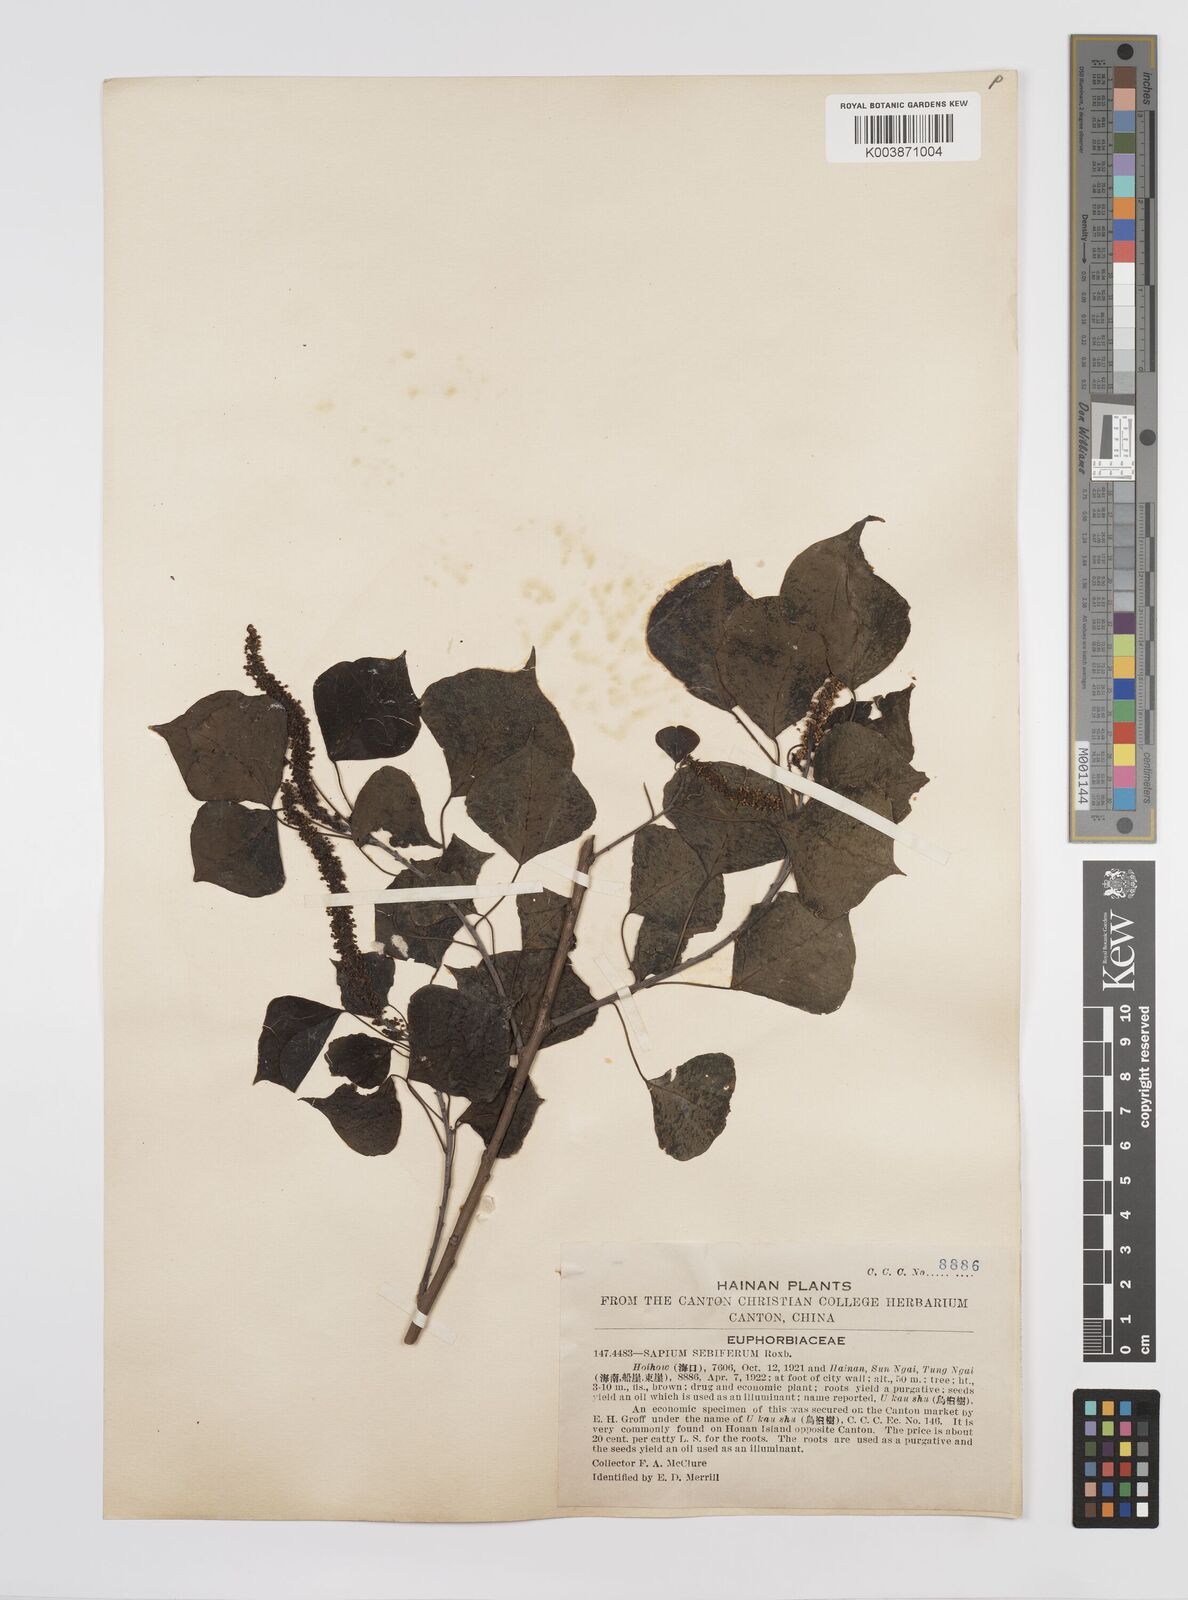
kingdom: Plantae
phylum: Tracheophyta
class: Magnoliopsida
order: Malpighiales
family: Euphorbiaceae
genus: Triadica
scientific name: Triadica sebifera
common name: Chinese tallow
